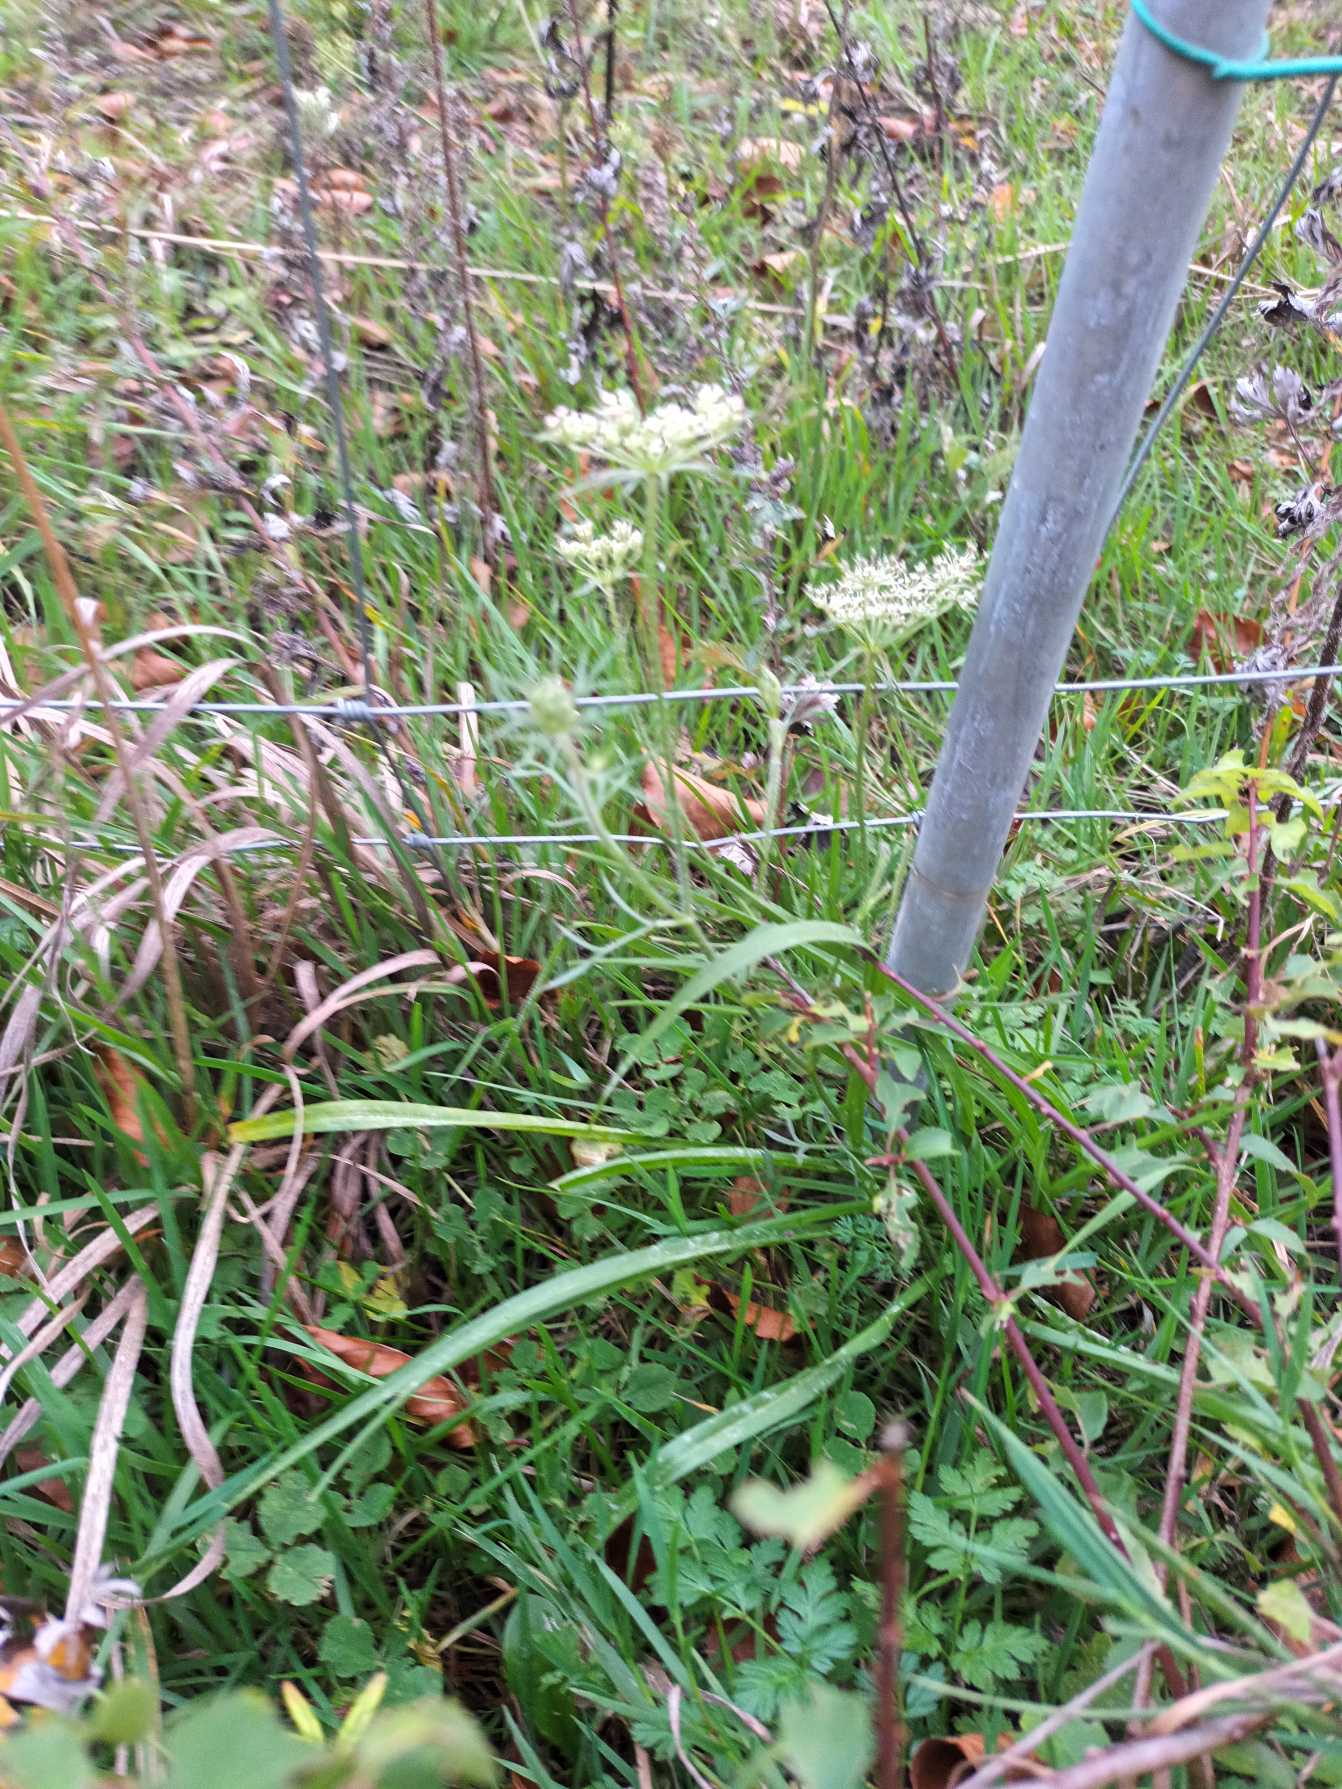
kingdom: Plantae
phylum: Tracheophyta
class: Magnoliopsida
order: Apiales
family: Apiaceae
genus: Daucus
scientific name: Daucus carota
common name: Gulerod
